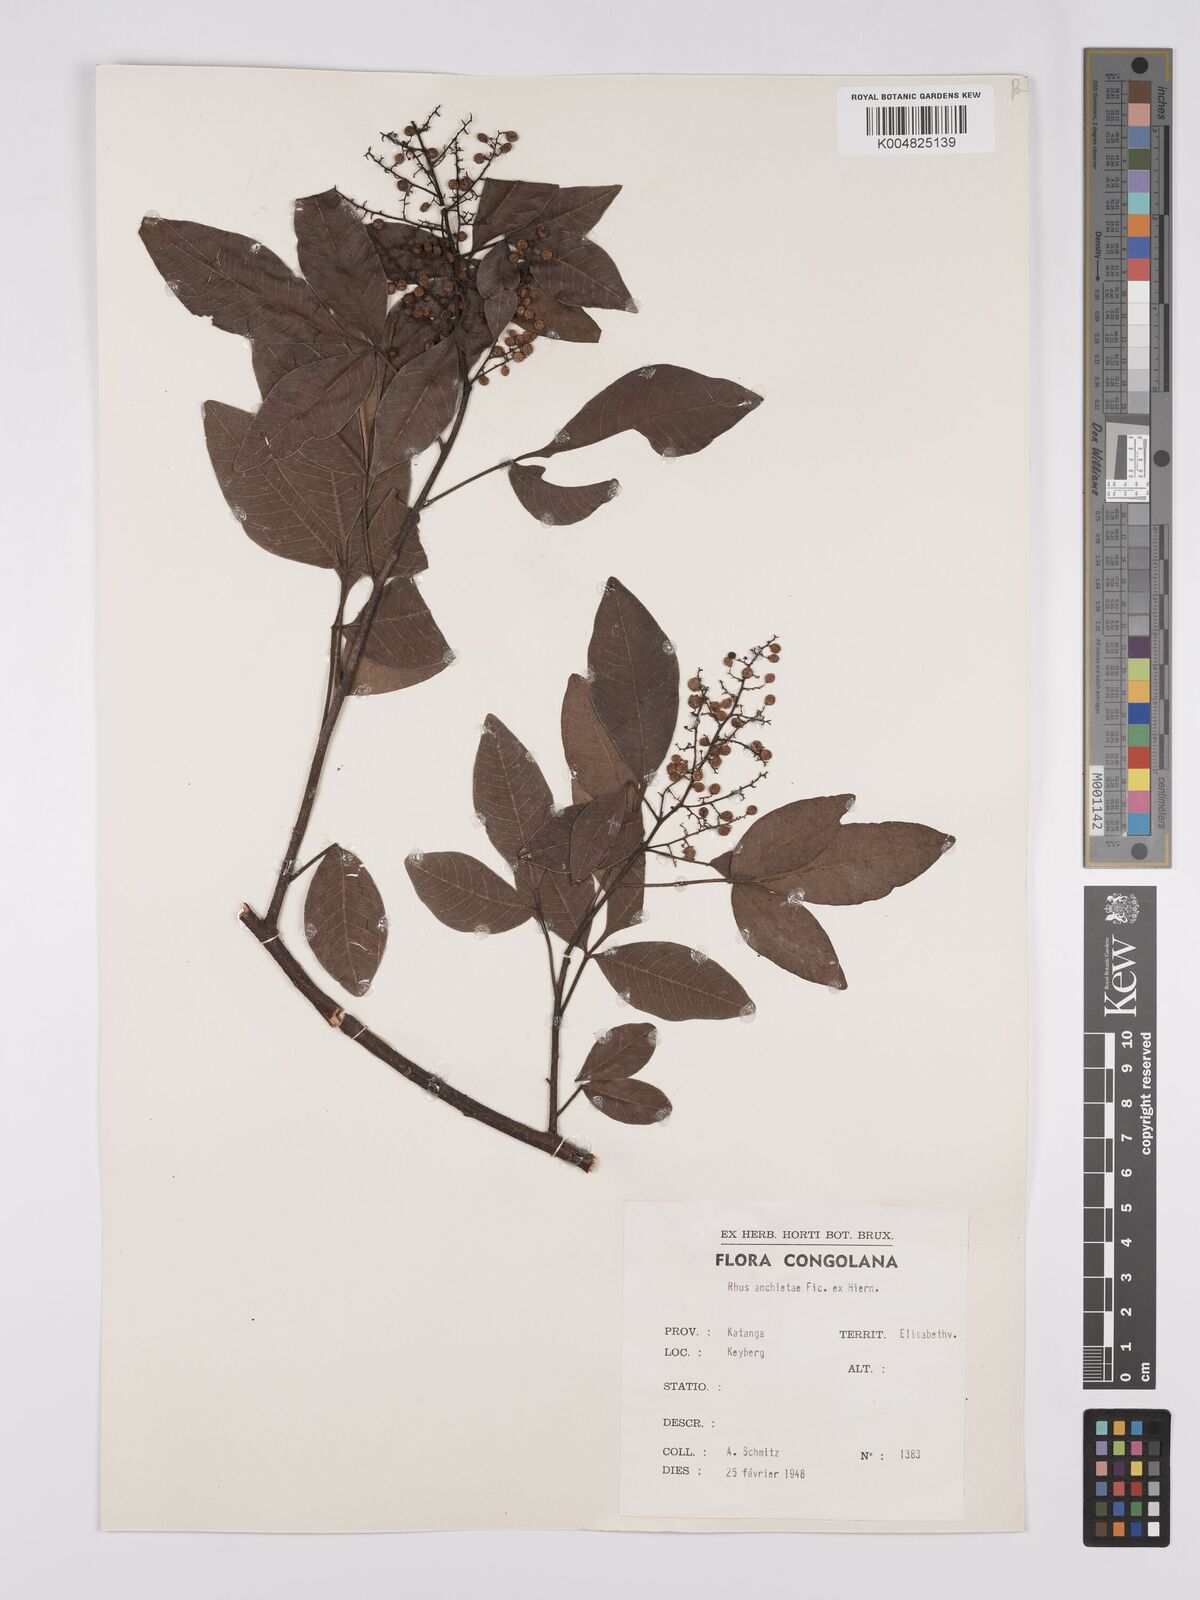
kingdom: Plantae
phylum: Tracheophyta
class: Magnoliopsida
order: Sapindales
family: Anacardiaceae
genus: Searsia
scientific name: Searsia anchietae
